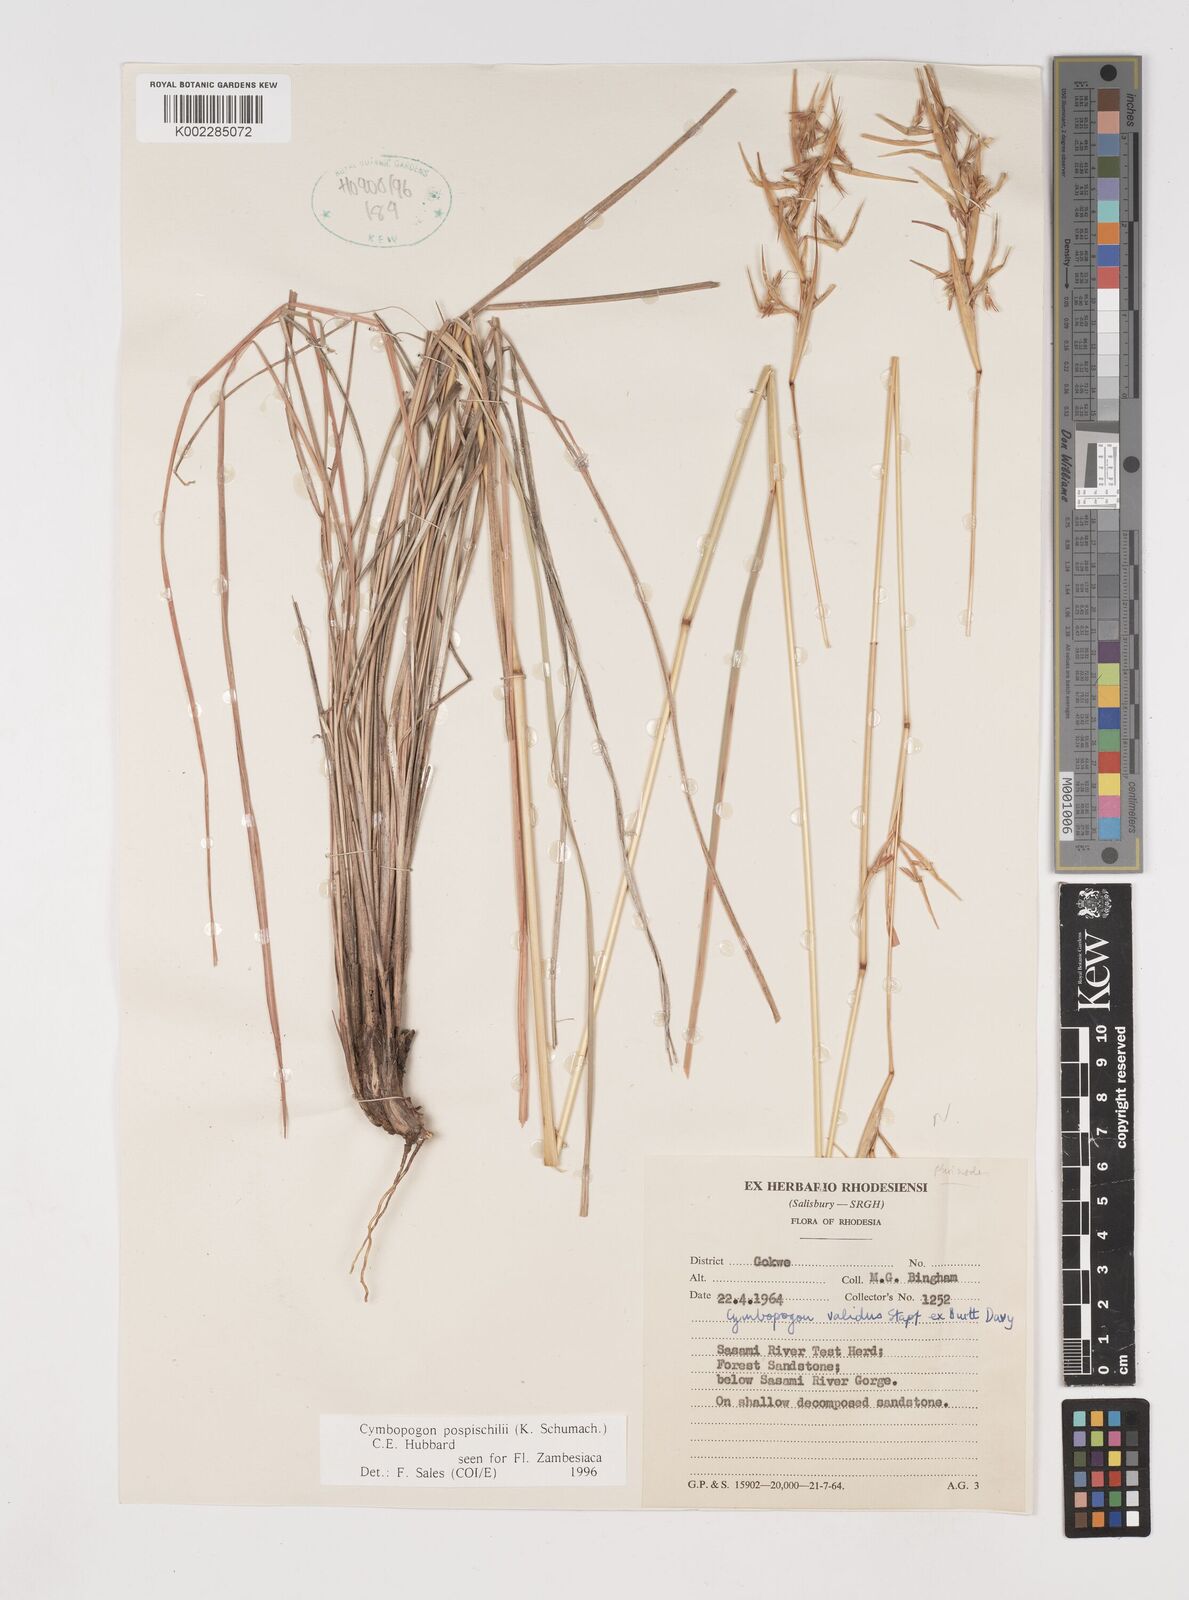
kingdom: Plantae
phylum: Tracheophyta
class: Liliopsida
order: Poales
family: Poaceae
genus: Cymbopogon
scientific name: Cymbopogon pospischilii
